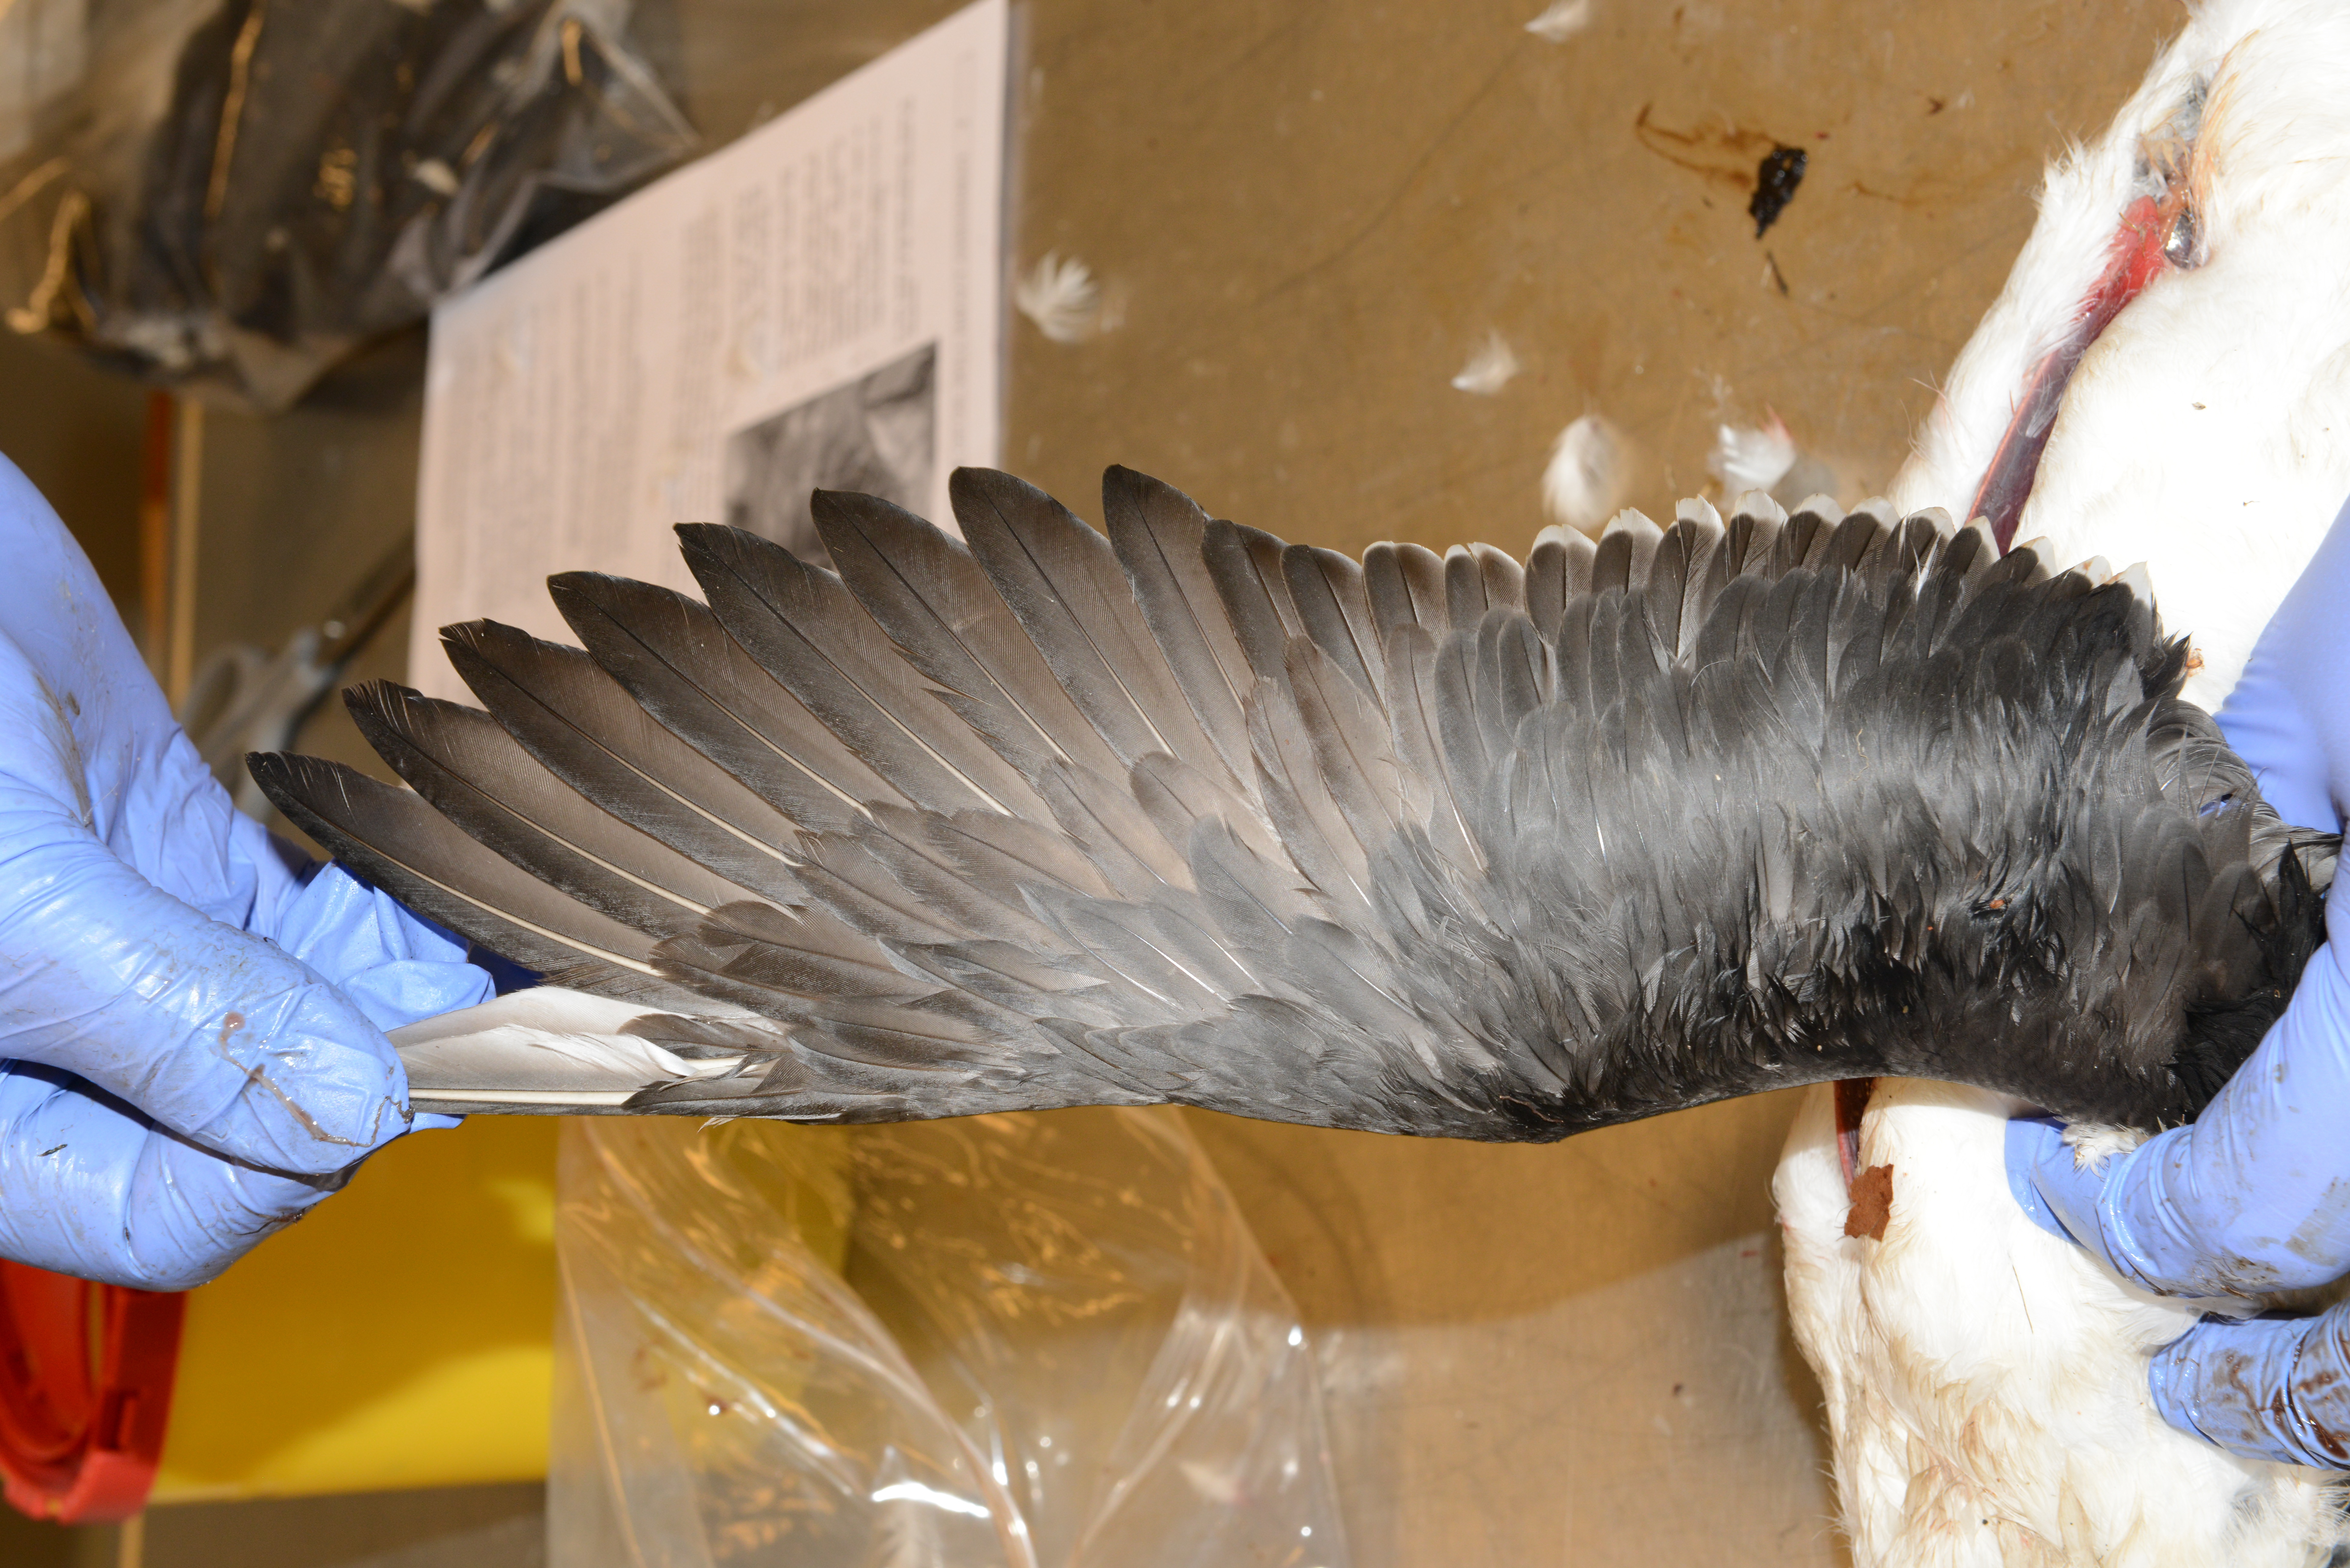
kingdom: Animalia
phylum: Chordata
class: Aves
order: Charadriiformes
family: Alcidae
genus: Uria
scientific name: Uria aalge
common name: Common murre
